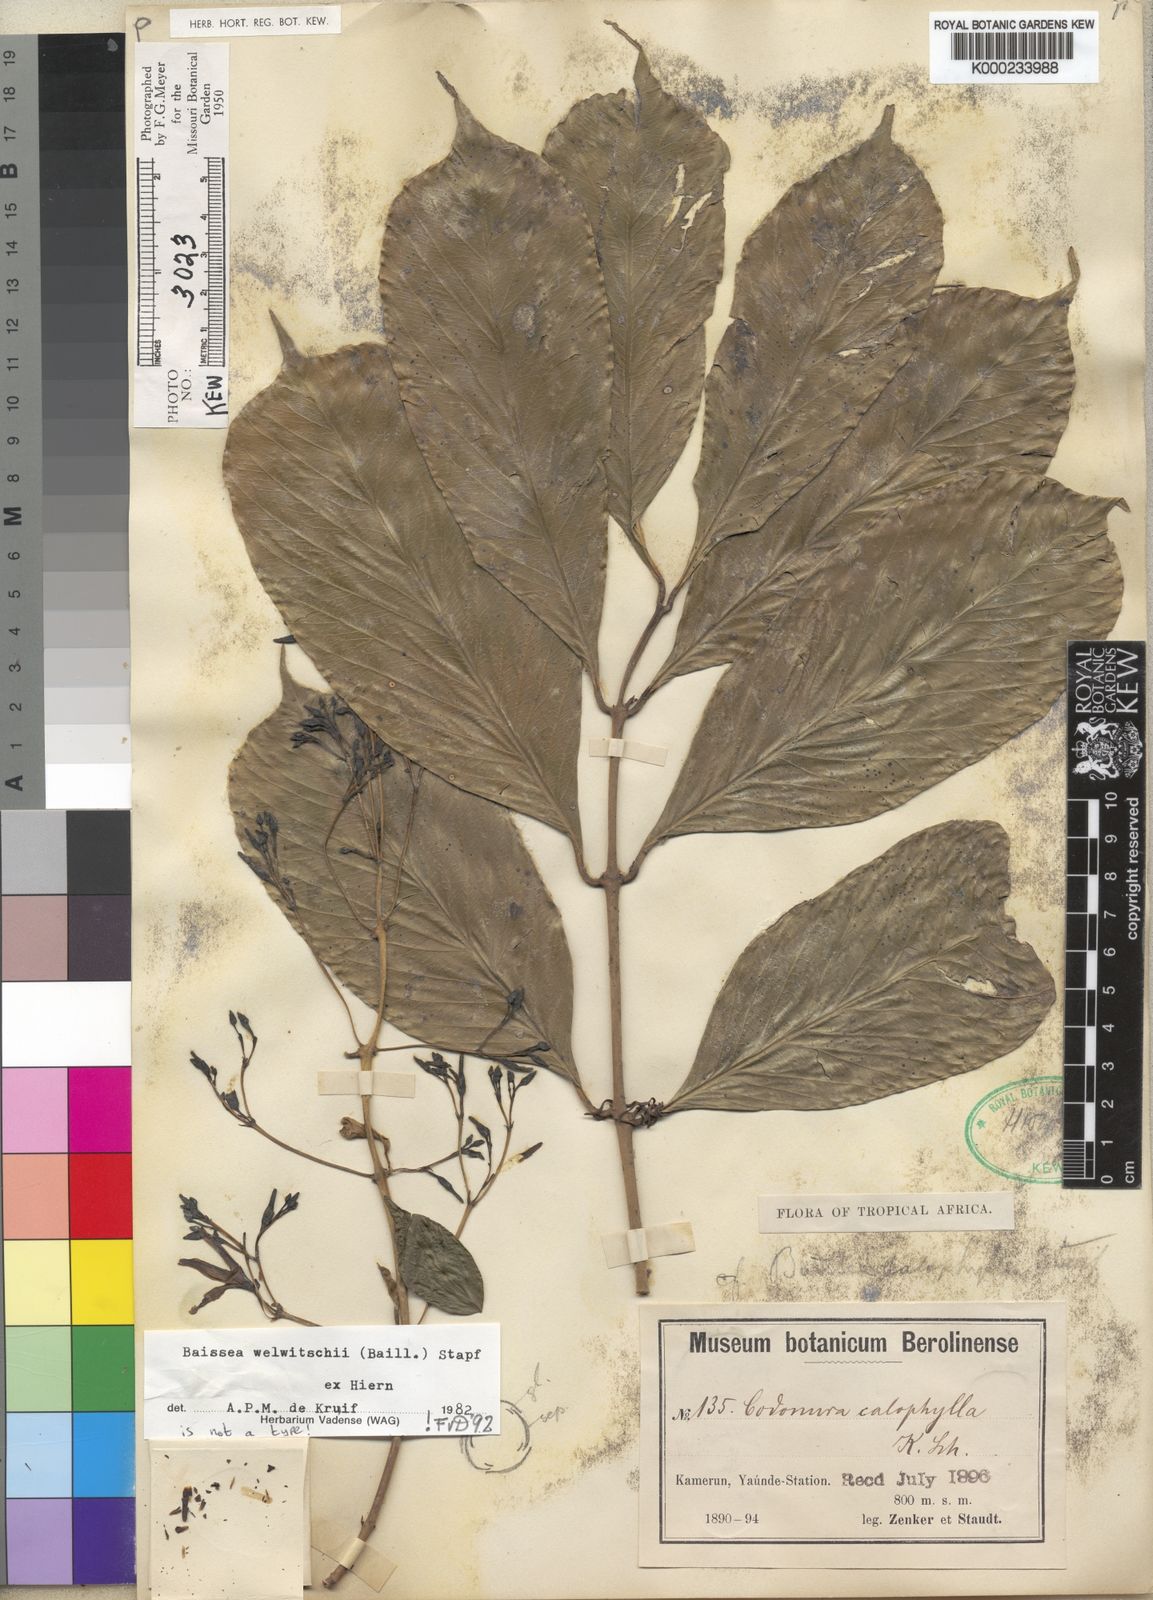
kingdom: Plantae
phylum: Tracheophyta
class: Magnoliopsida
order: Gentianales
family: Apocynaceae
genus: Baissea
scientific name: Baissea welwitschii
